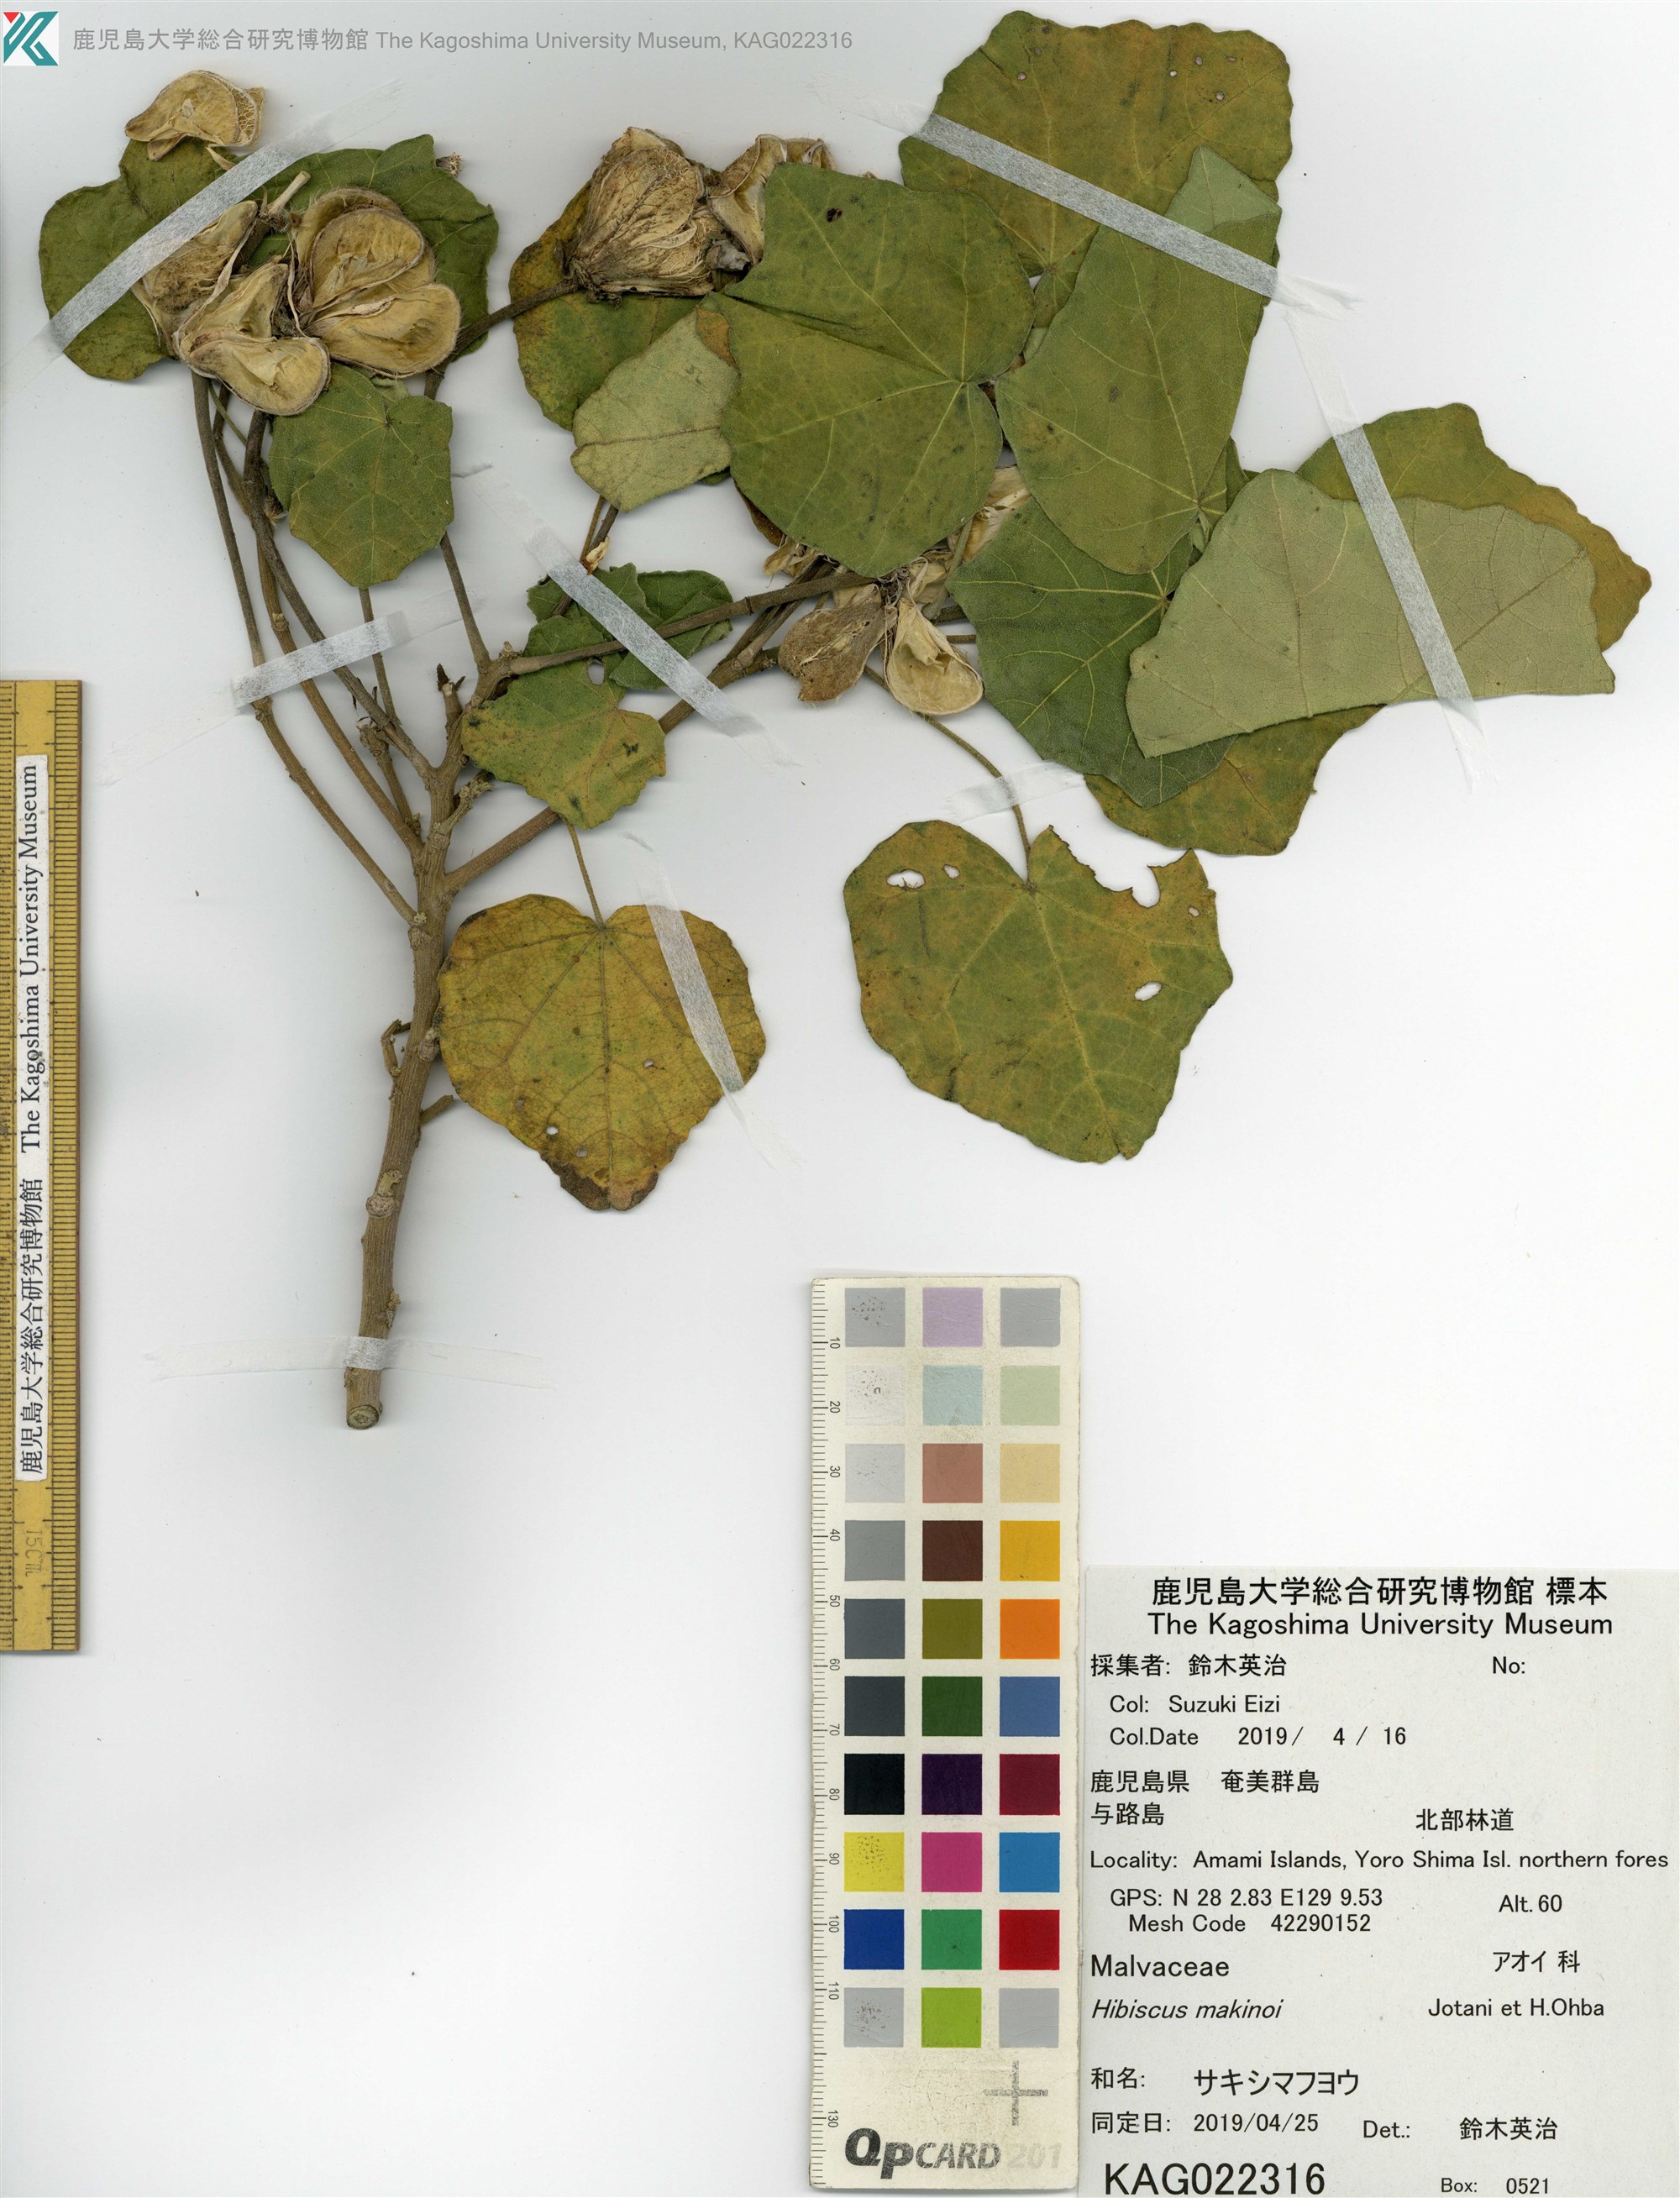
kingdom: Plantae
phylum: Tracheophyta
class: Magnoliopsida
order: Malvales
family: Malvaceae
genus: Hibiscus
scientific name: Hibiscus makinoi
